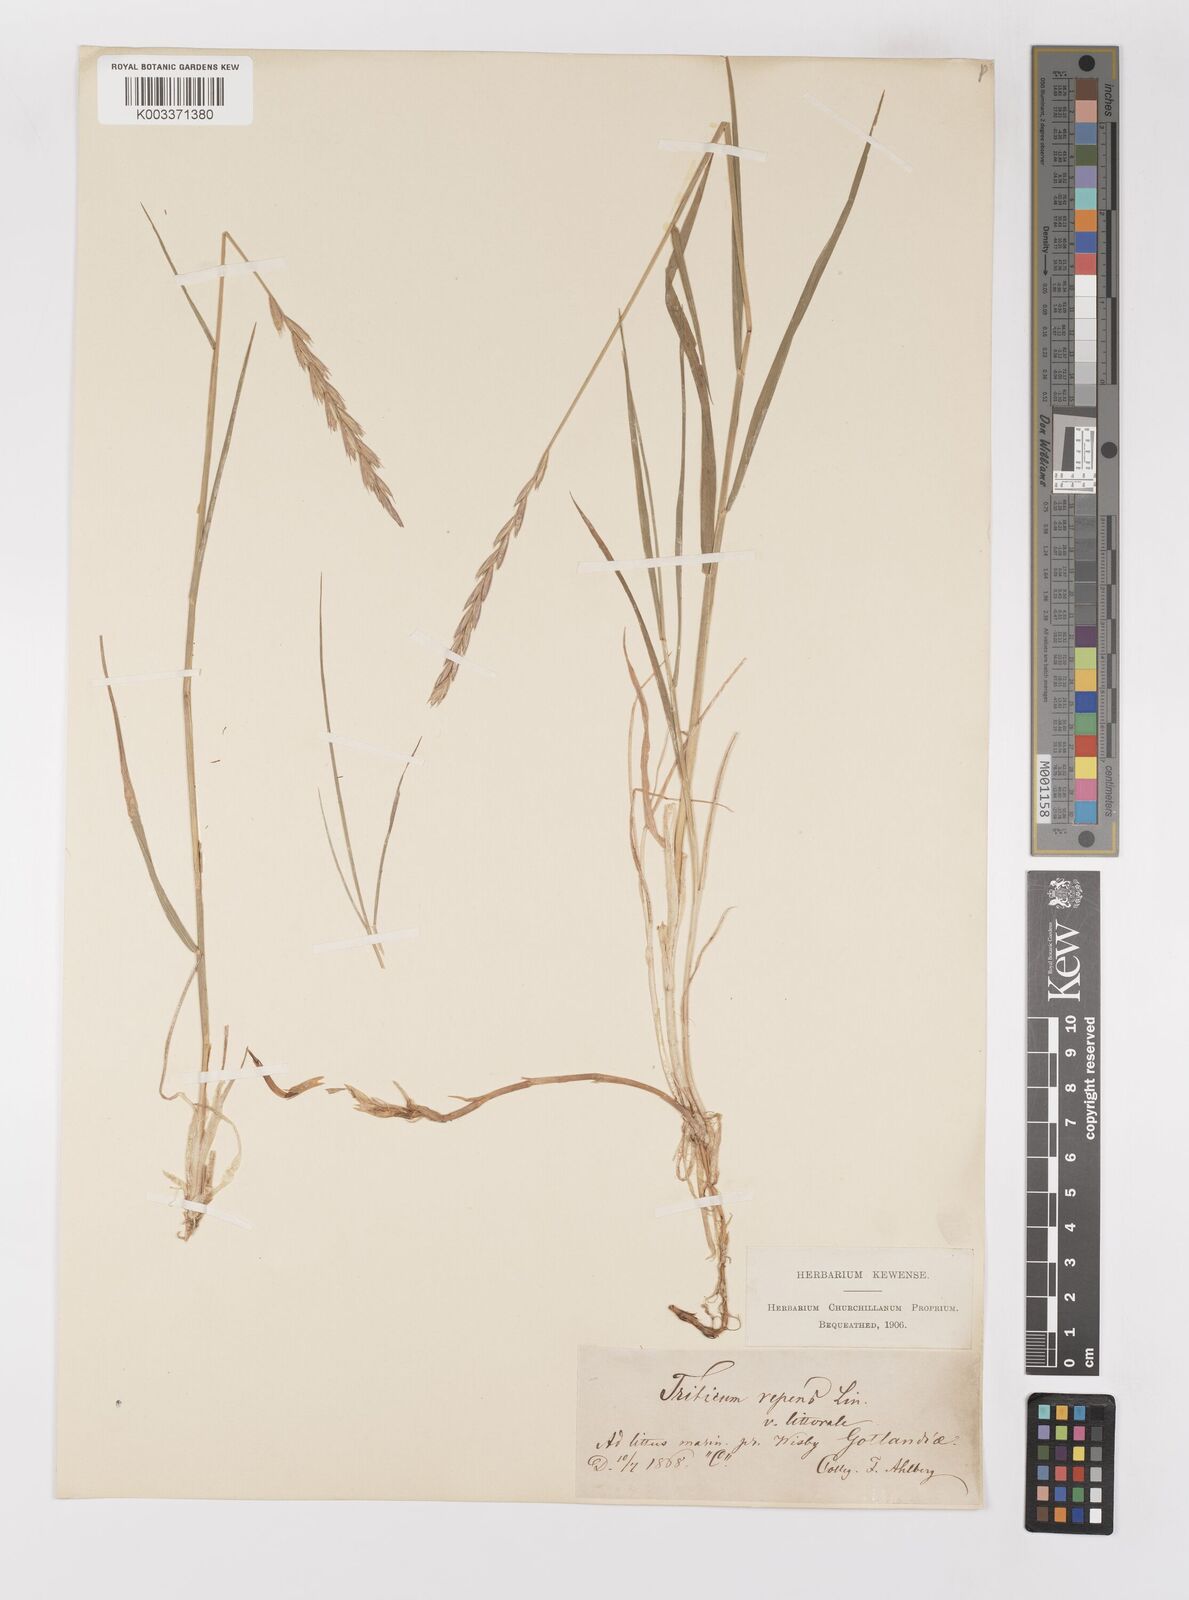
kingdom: Plantae
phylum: Tracheophyta
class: Liliopsida
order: Poales
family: Poaceae
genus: Elymus
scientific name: Elymus repens
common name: Quackgrass
